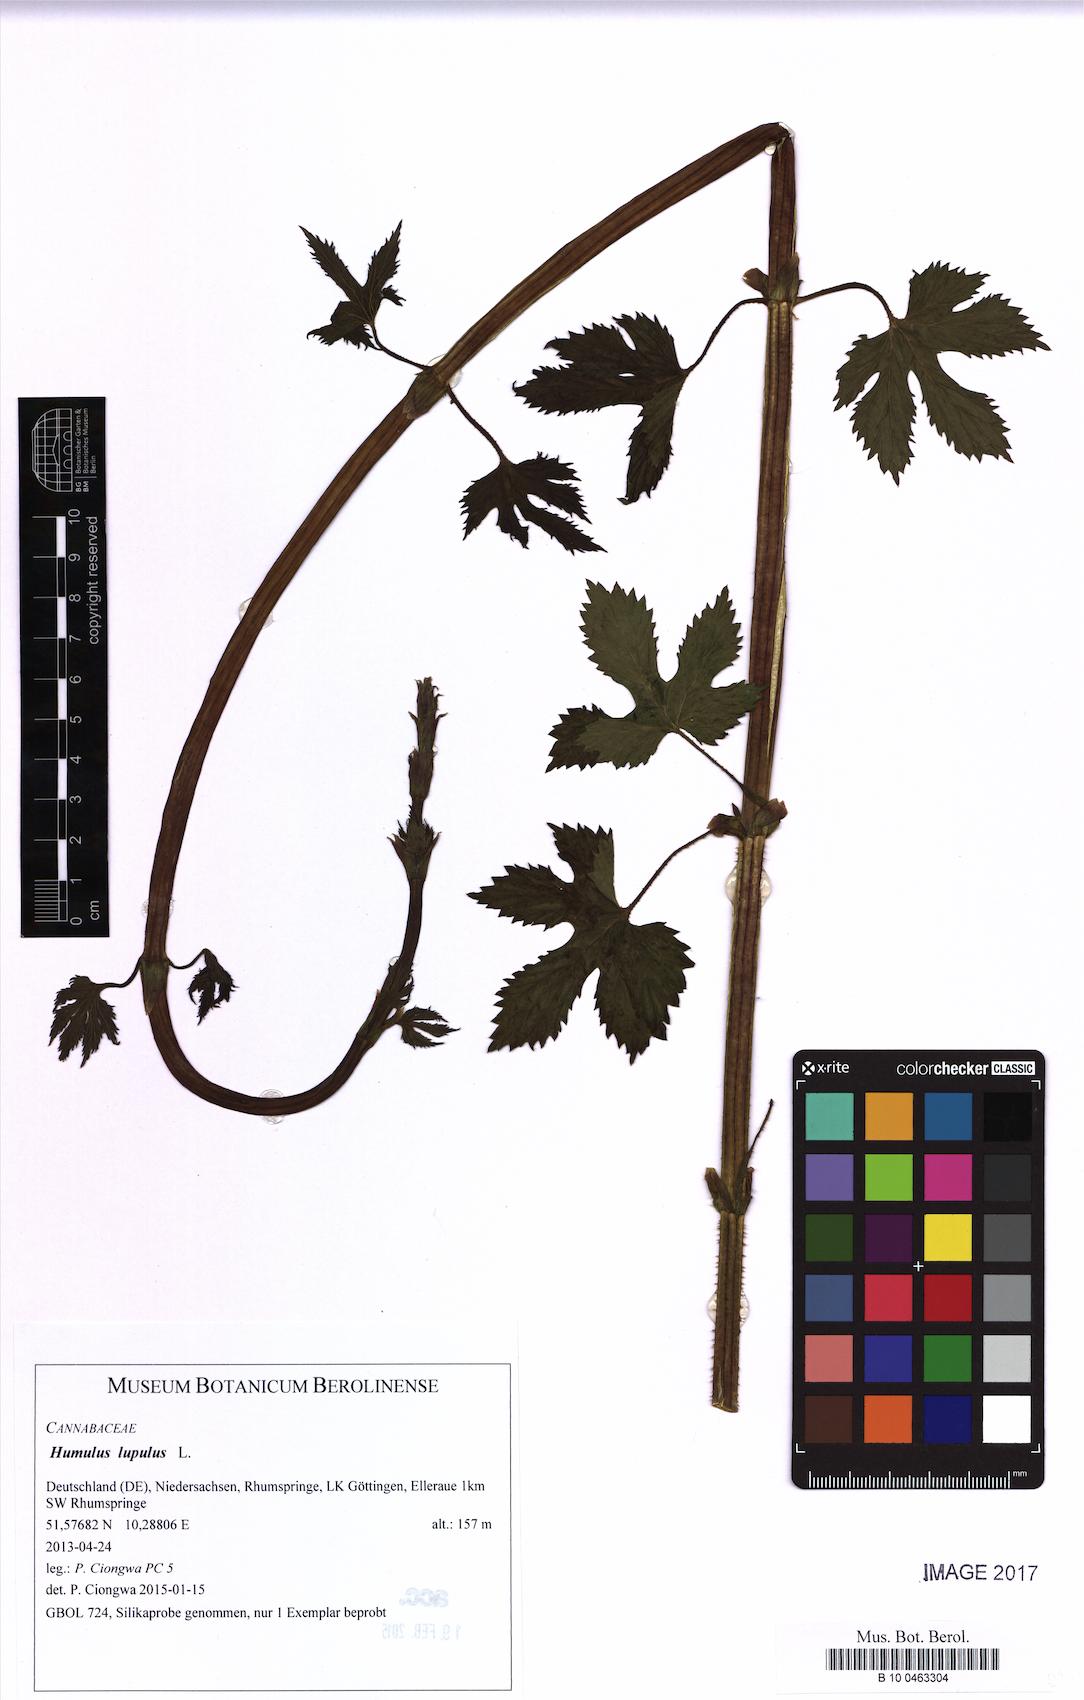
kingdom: Plantae
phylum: Tracheophyta
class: Magnoliopsida
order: Rosales
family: Cannabaceae
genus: Humulus
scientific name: Humulus lupulus
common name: Hop
